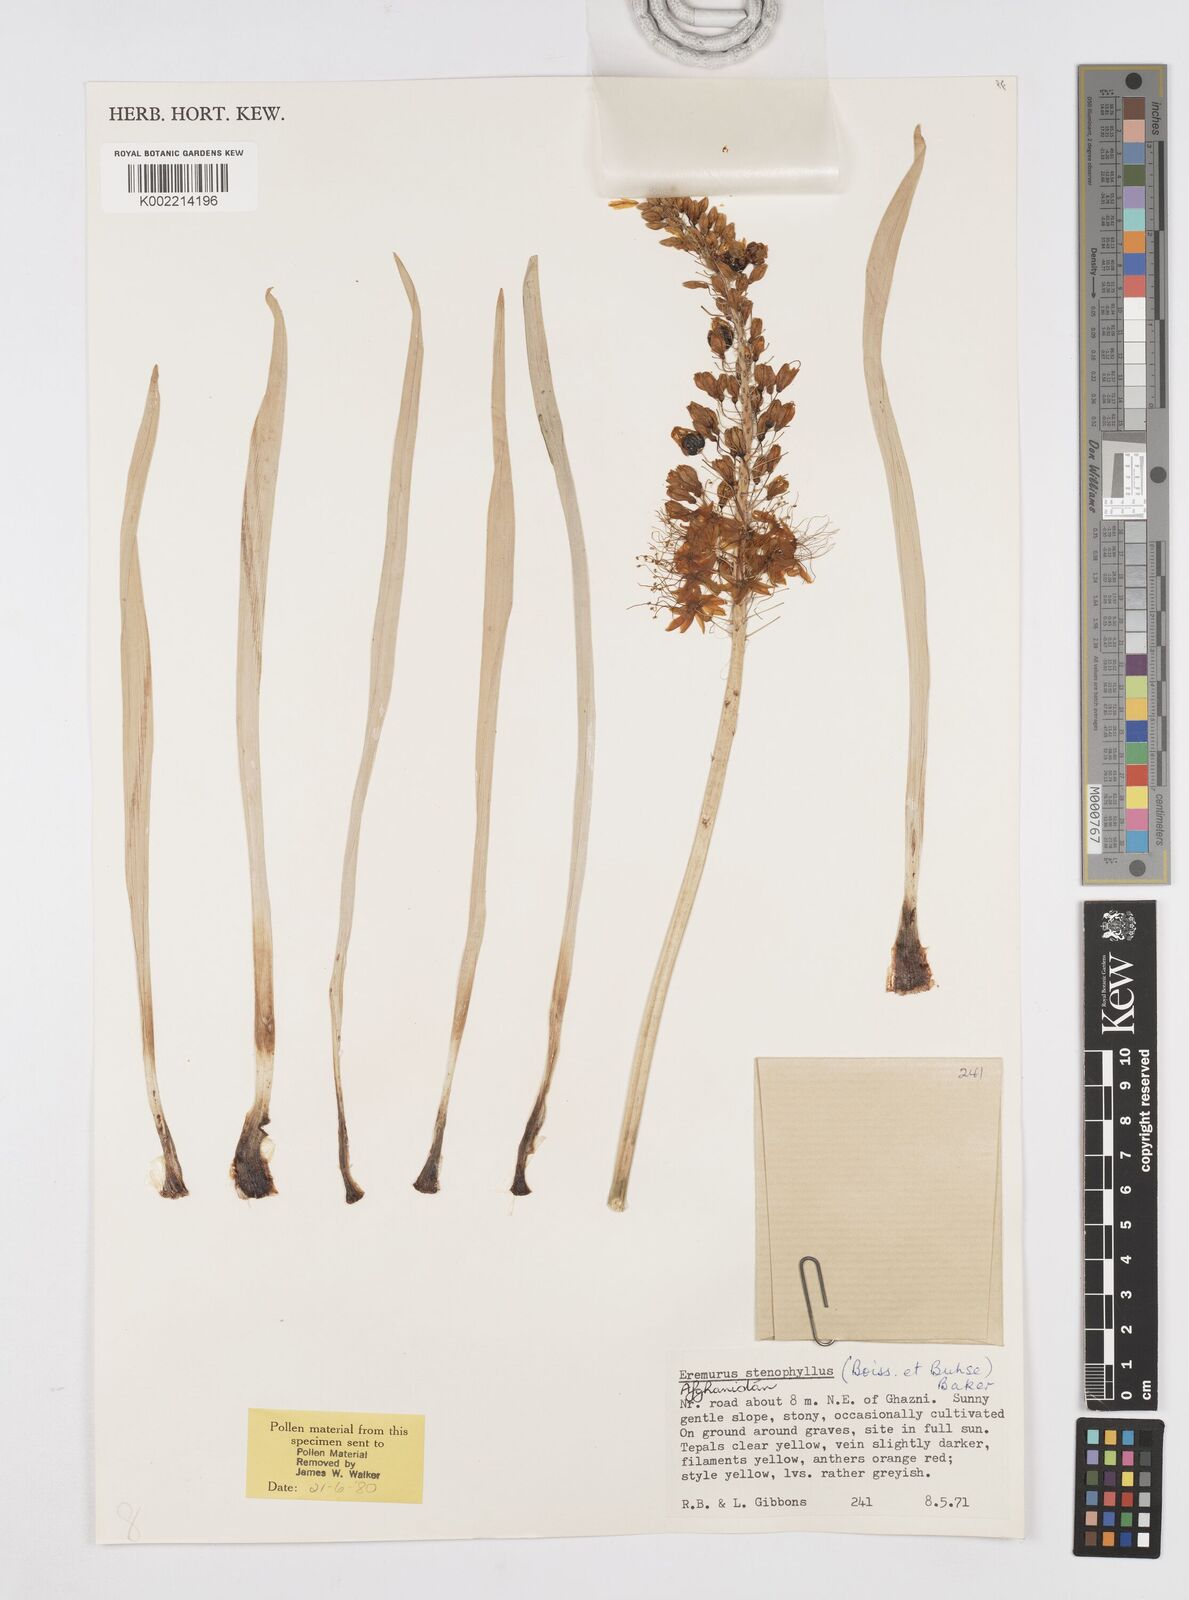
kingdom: Plantae
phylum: Tracheophyta
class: Liliopsida
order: Asparagales
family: Asphodelaceae
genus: Eremurus
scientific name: Eremurus stenophyllus
